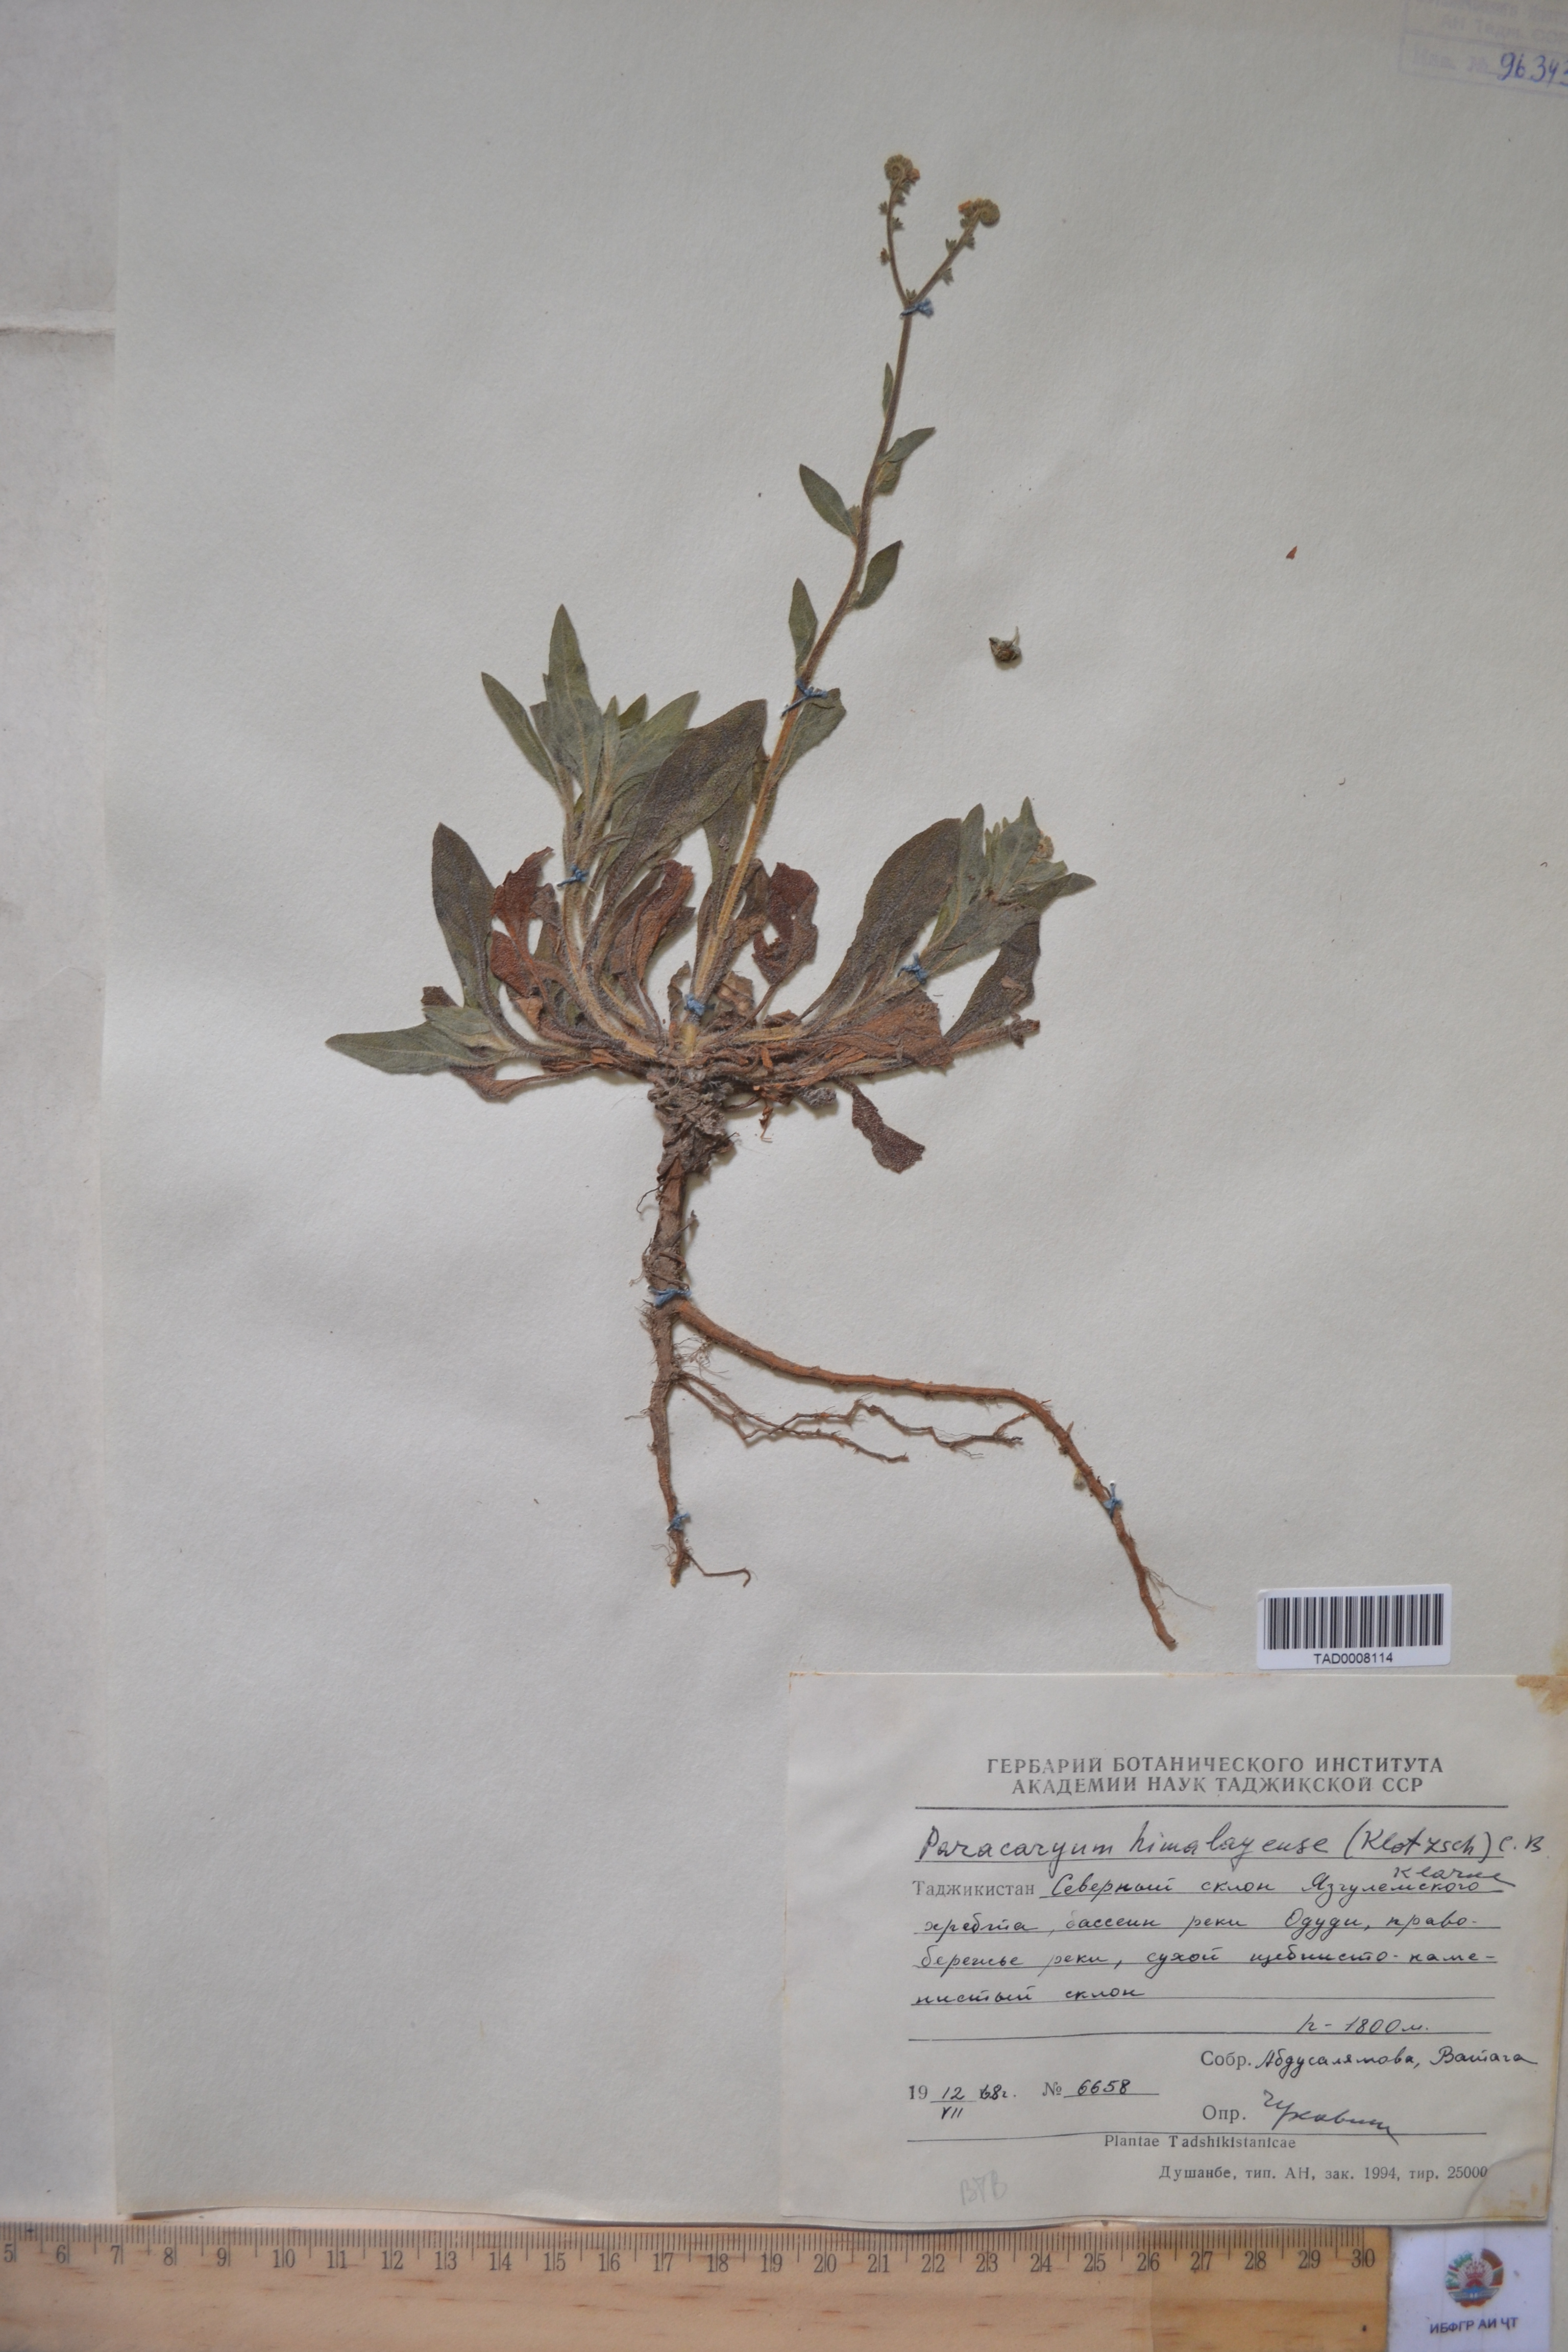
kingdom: Plantae
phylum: Tracheophyta
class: Magnoliopsida
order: Boraginales
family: Boraginaceae
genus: Paracaryum
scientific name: Paracaryum himalayense
